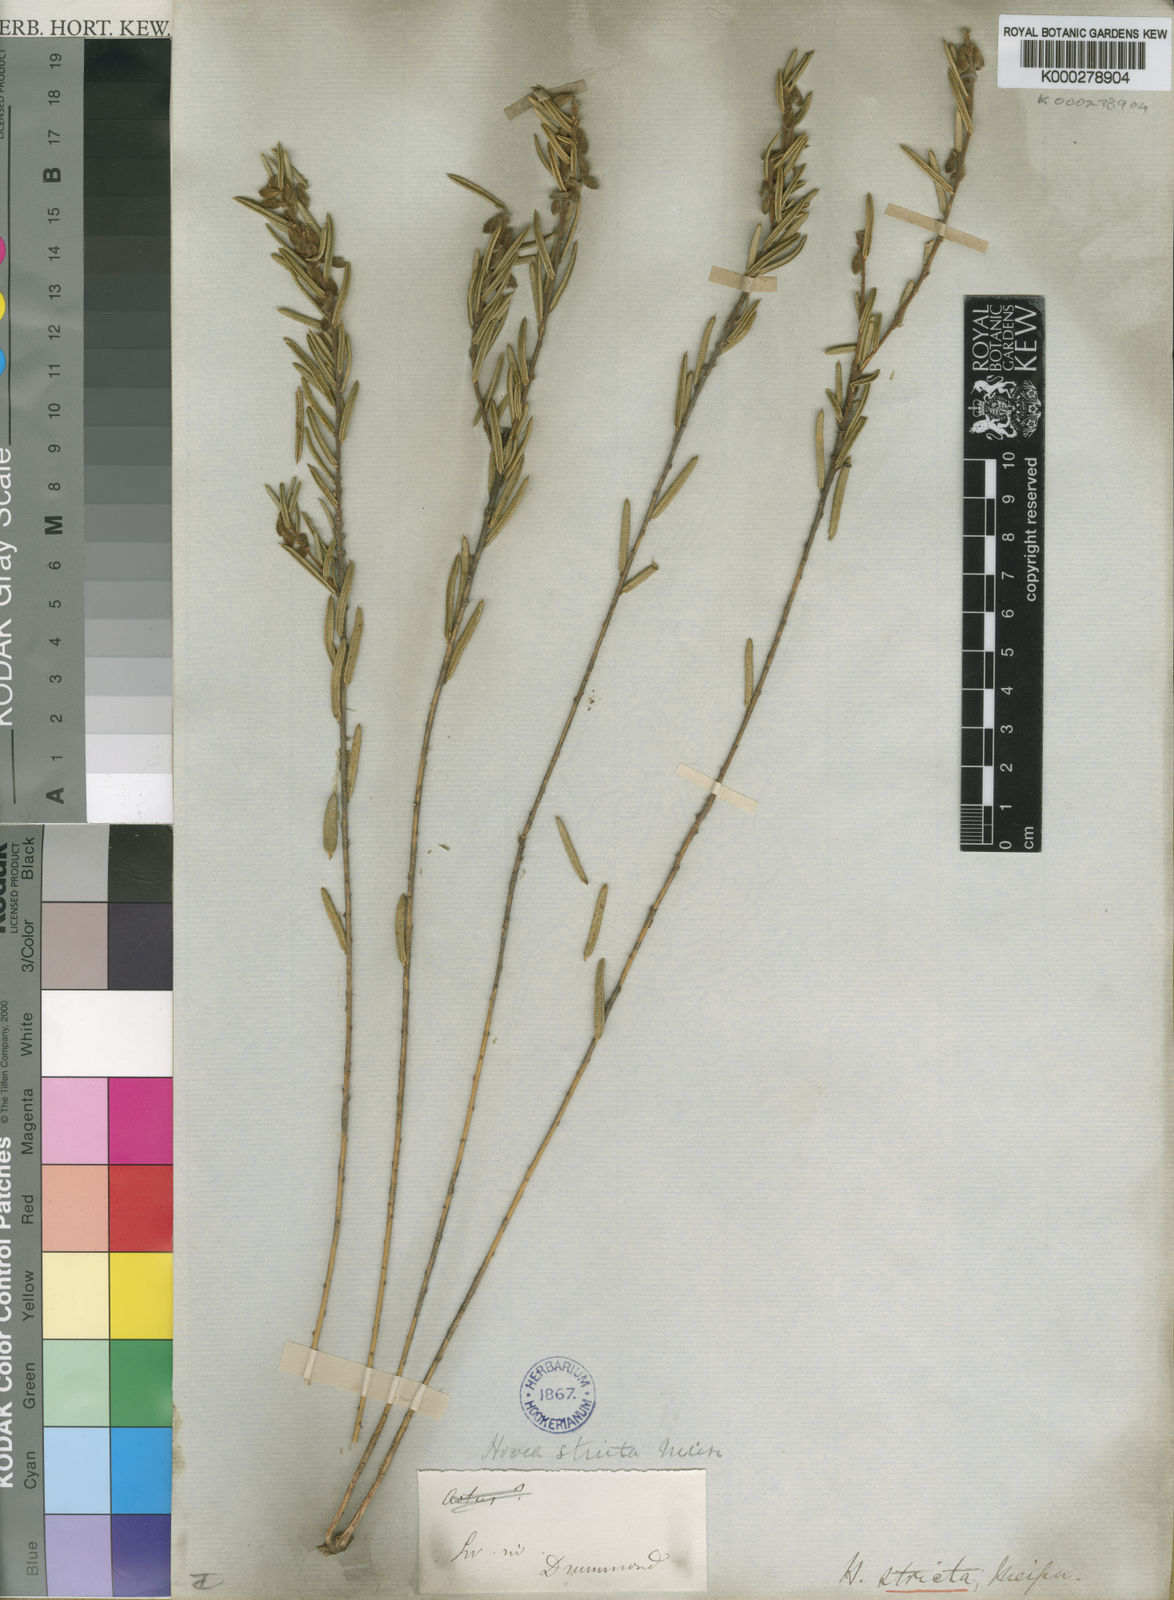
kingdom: Plantae
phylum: Tracheophyta
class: Magnoliopsida
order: Fabales
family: Fabaceae
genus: Hovea
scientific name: Hovea stricta
